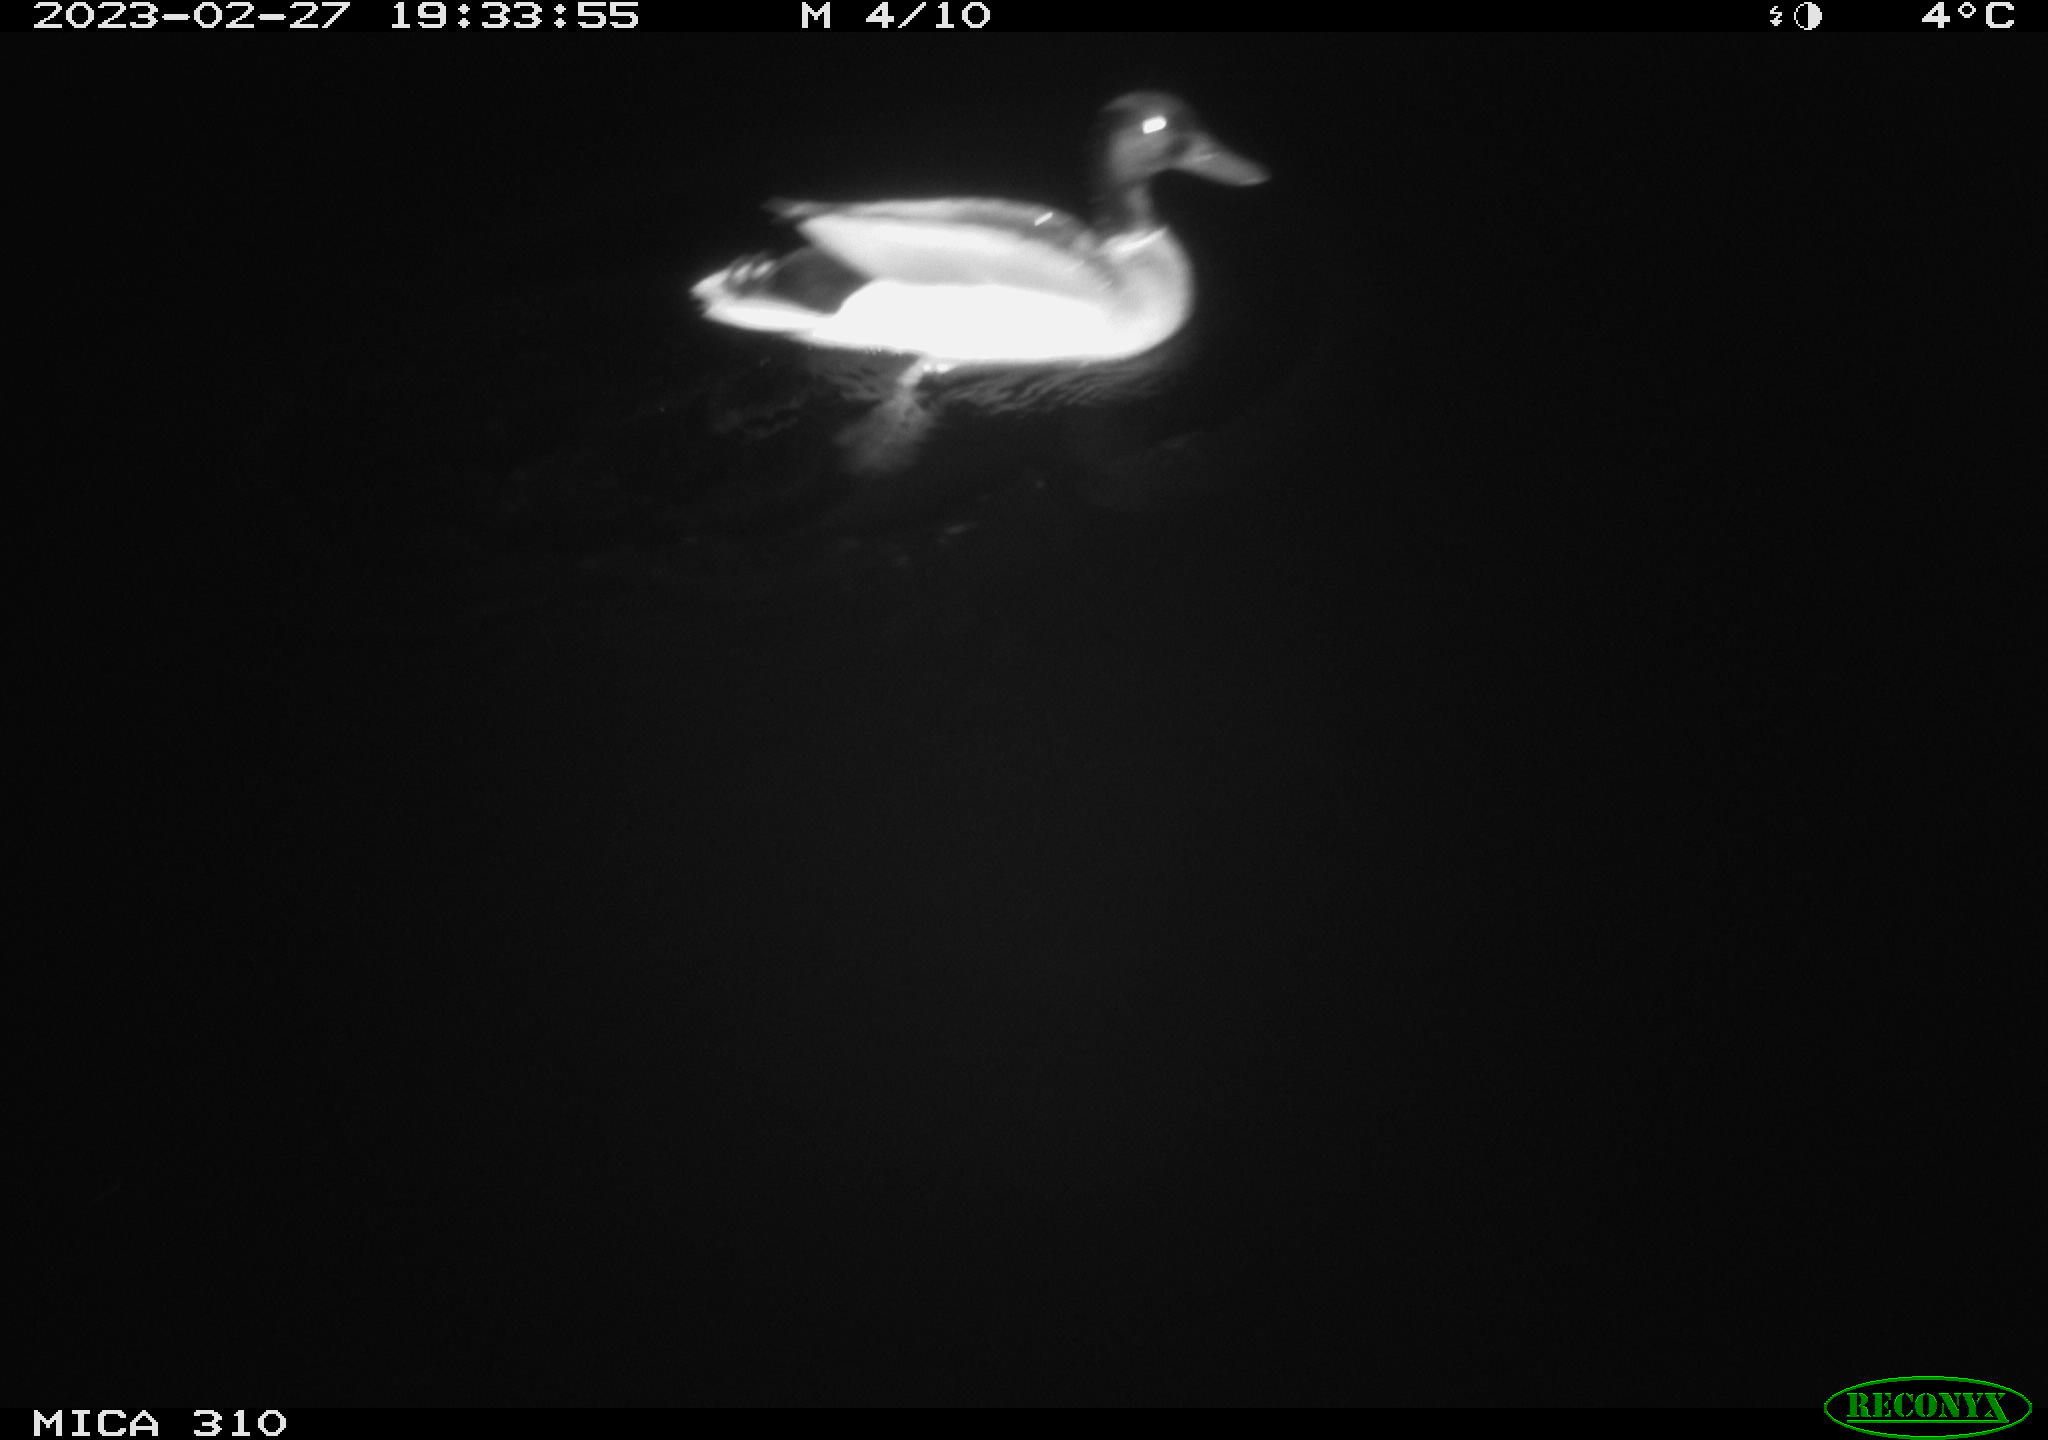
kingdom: Animalia
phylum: Chordata
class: Aves
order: Anseriformes
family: Anatidae
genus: Anas
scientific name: Anas
